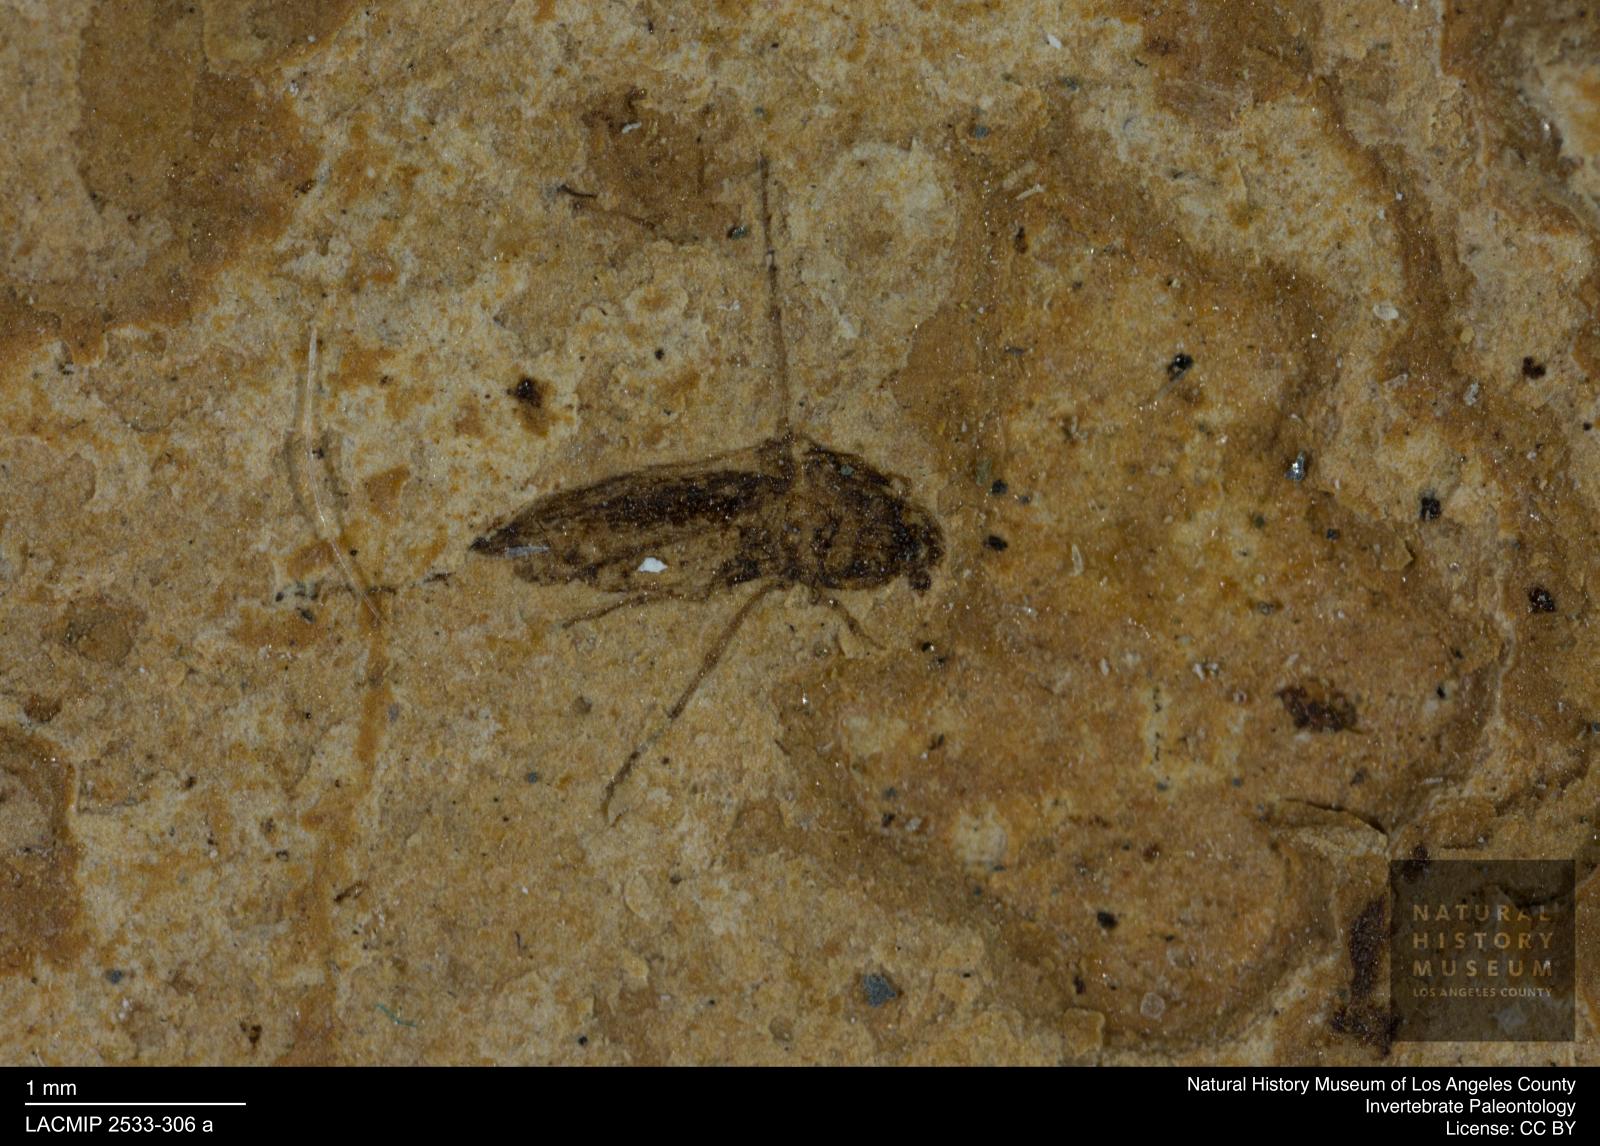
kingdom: Animalia
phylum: Arthropoda
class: Insecta
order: Diptera
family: Ceratopogonidae
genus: Atrichopogon
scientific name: Atrichopogon brunnescens
